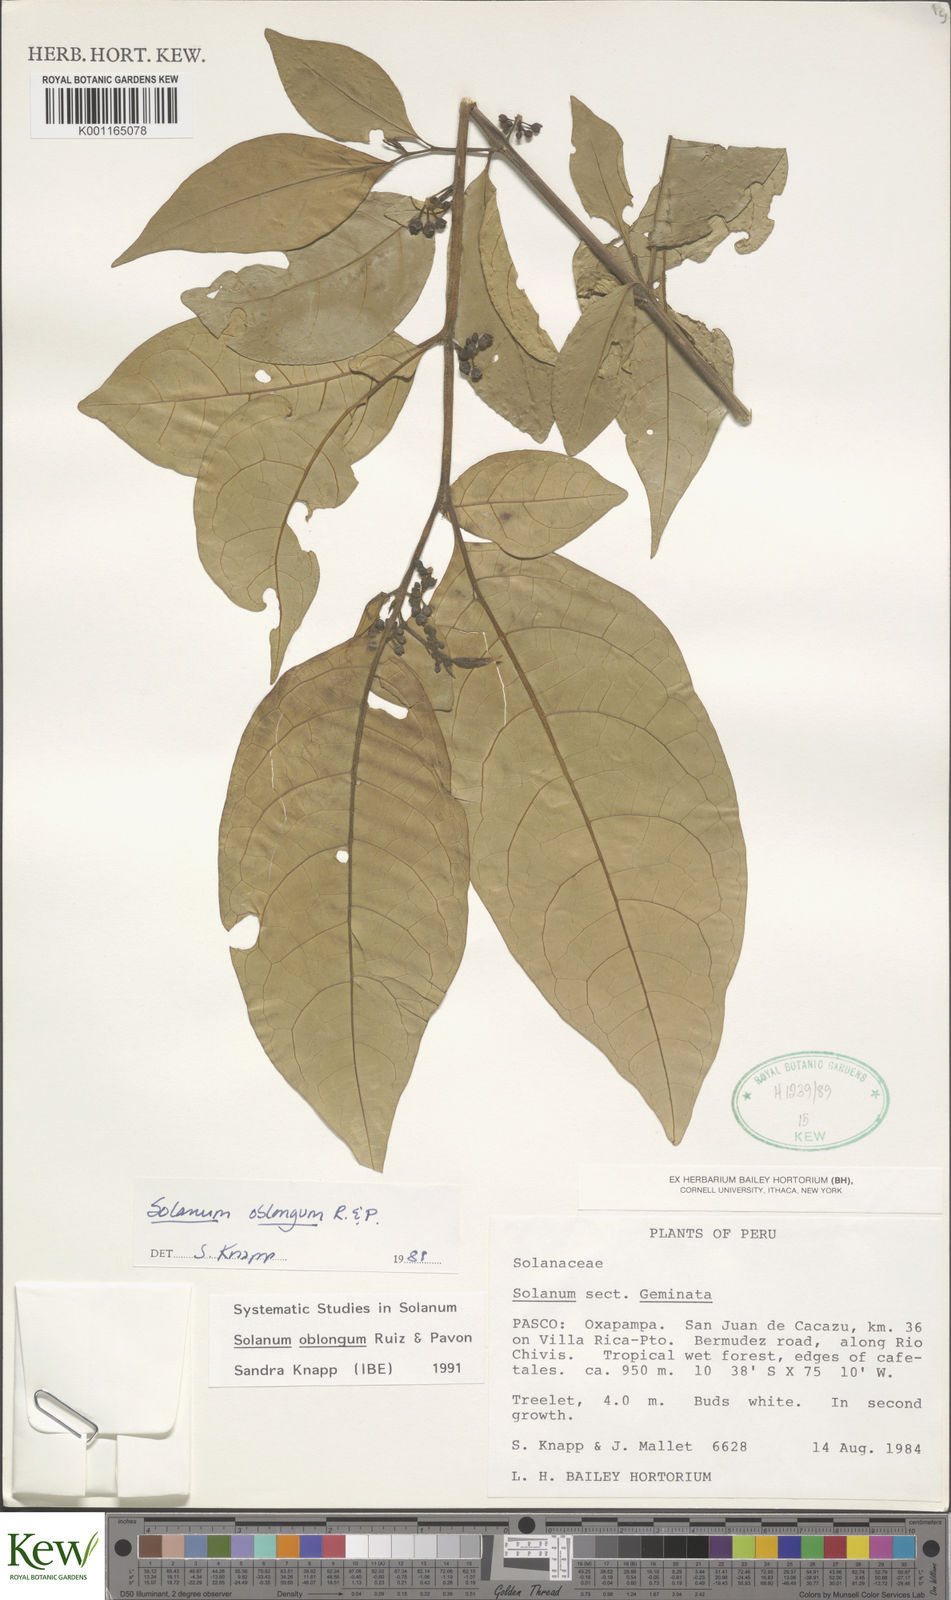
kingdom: Plantae
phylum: Tracheophyta
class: Magnoliopsida
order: Solanales
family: Solanaceae
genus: Solanum
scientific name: Solanum oblongum
